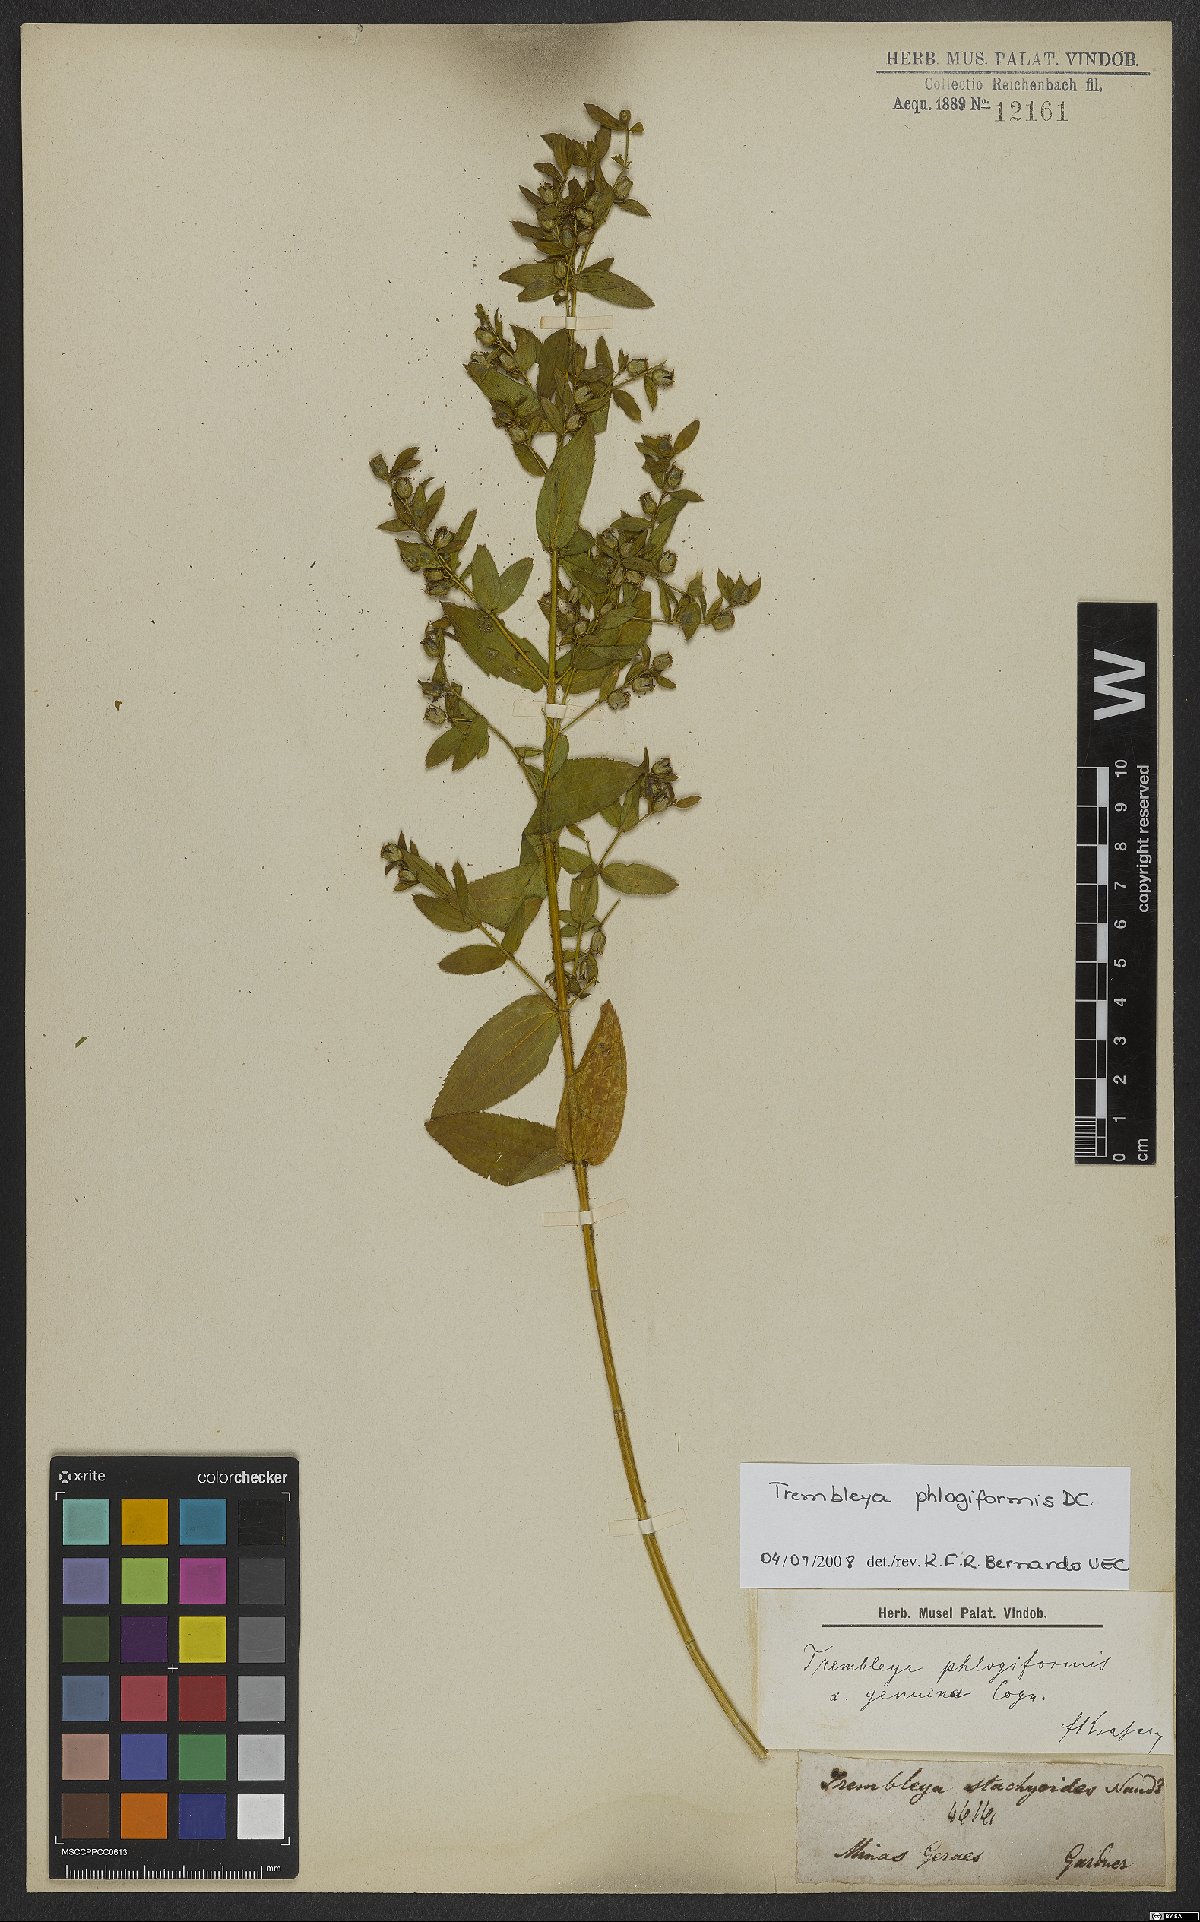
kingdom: Plantae
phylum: Tracheophyta
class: Magnoliopsida
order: Myrtales
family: Melastomataceae
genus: Microlicia
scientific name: Microlicia phlogiformis
